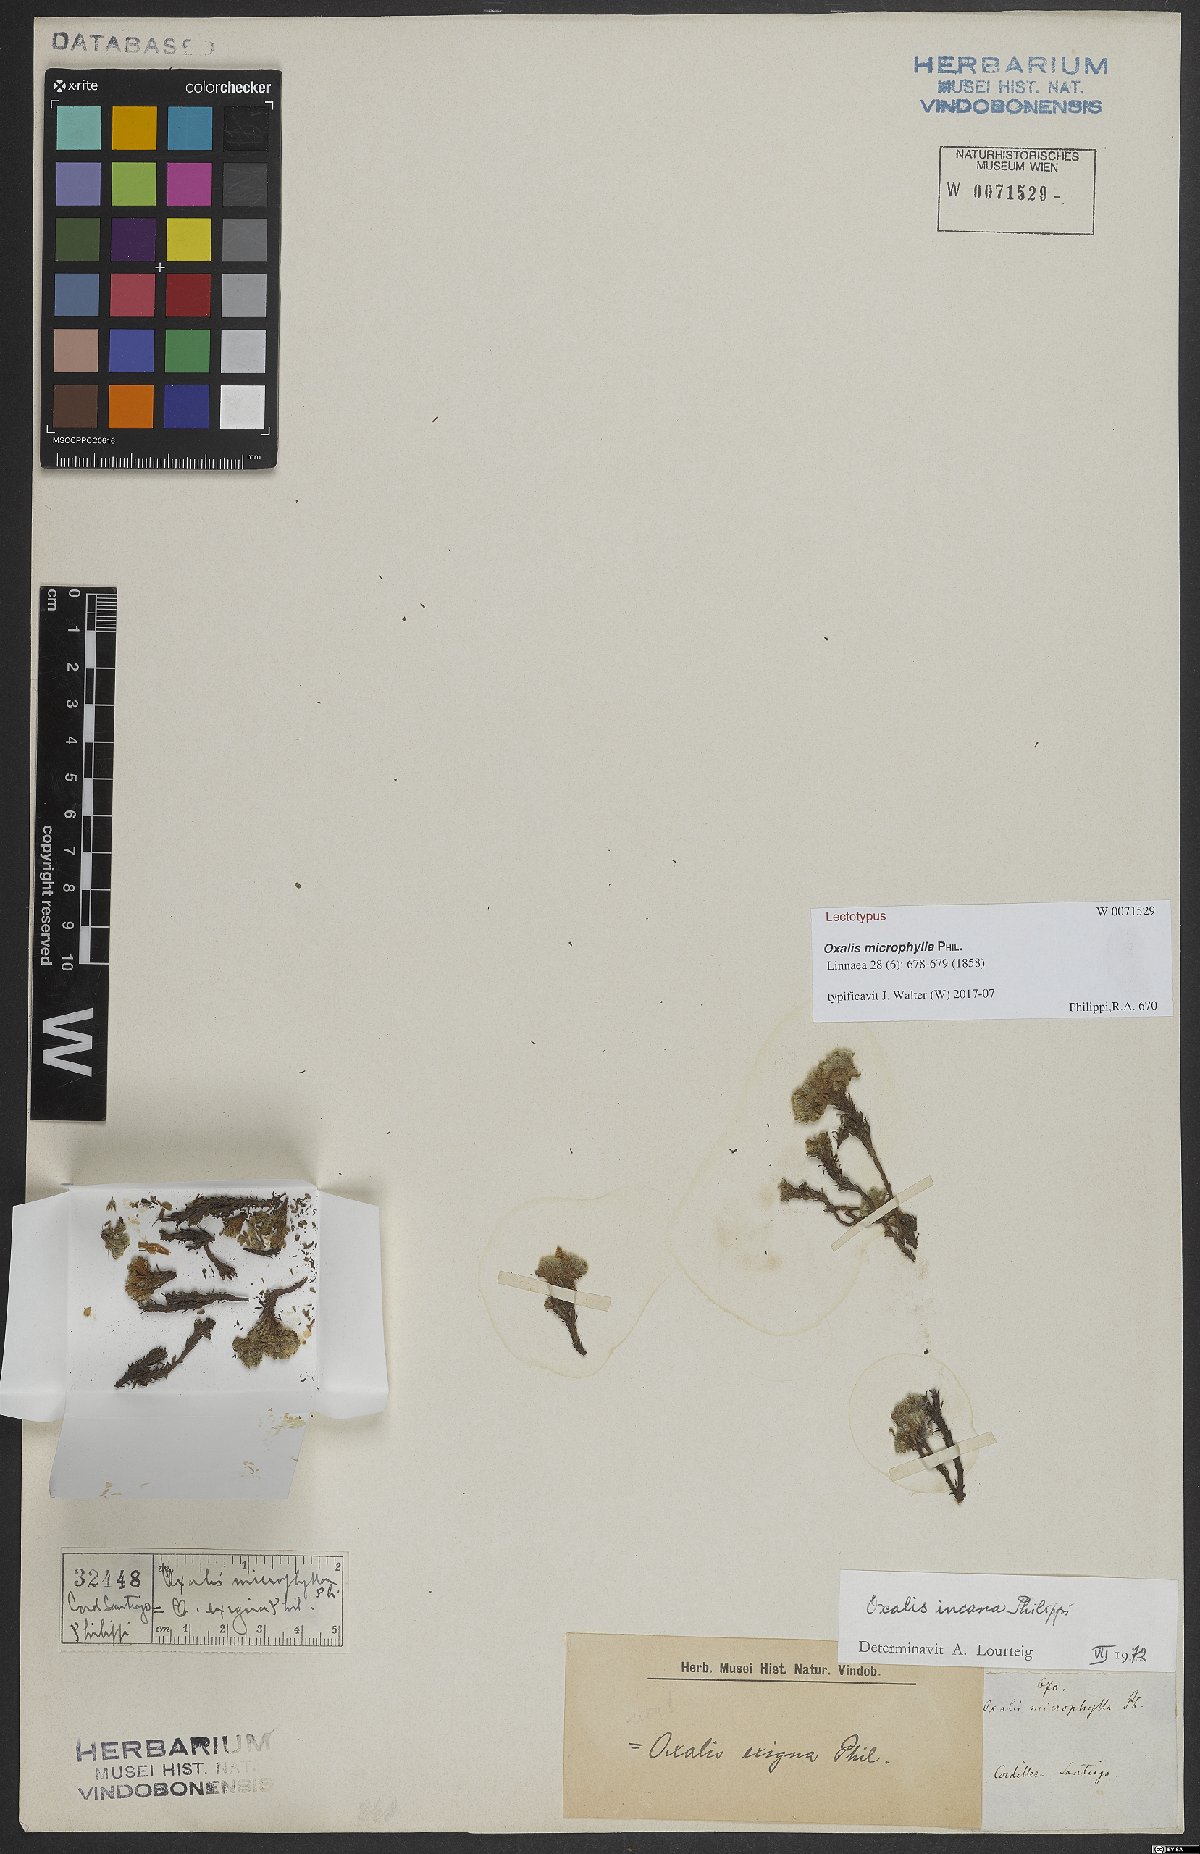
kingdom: Plantae
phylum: Tracheophyta
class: Magnoliopsida
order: Oxalidales
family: Oxalidaceae
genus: Oxalis
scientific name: Oxalis incana
